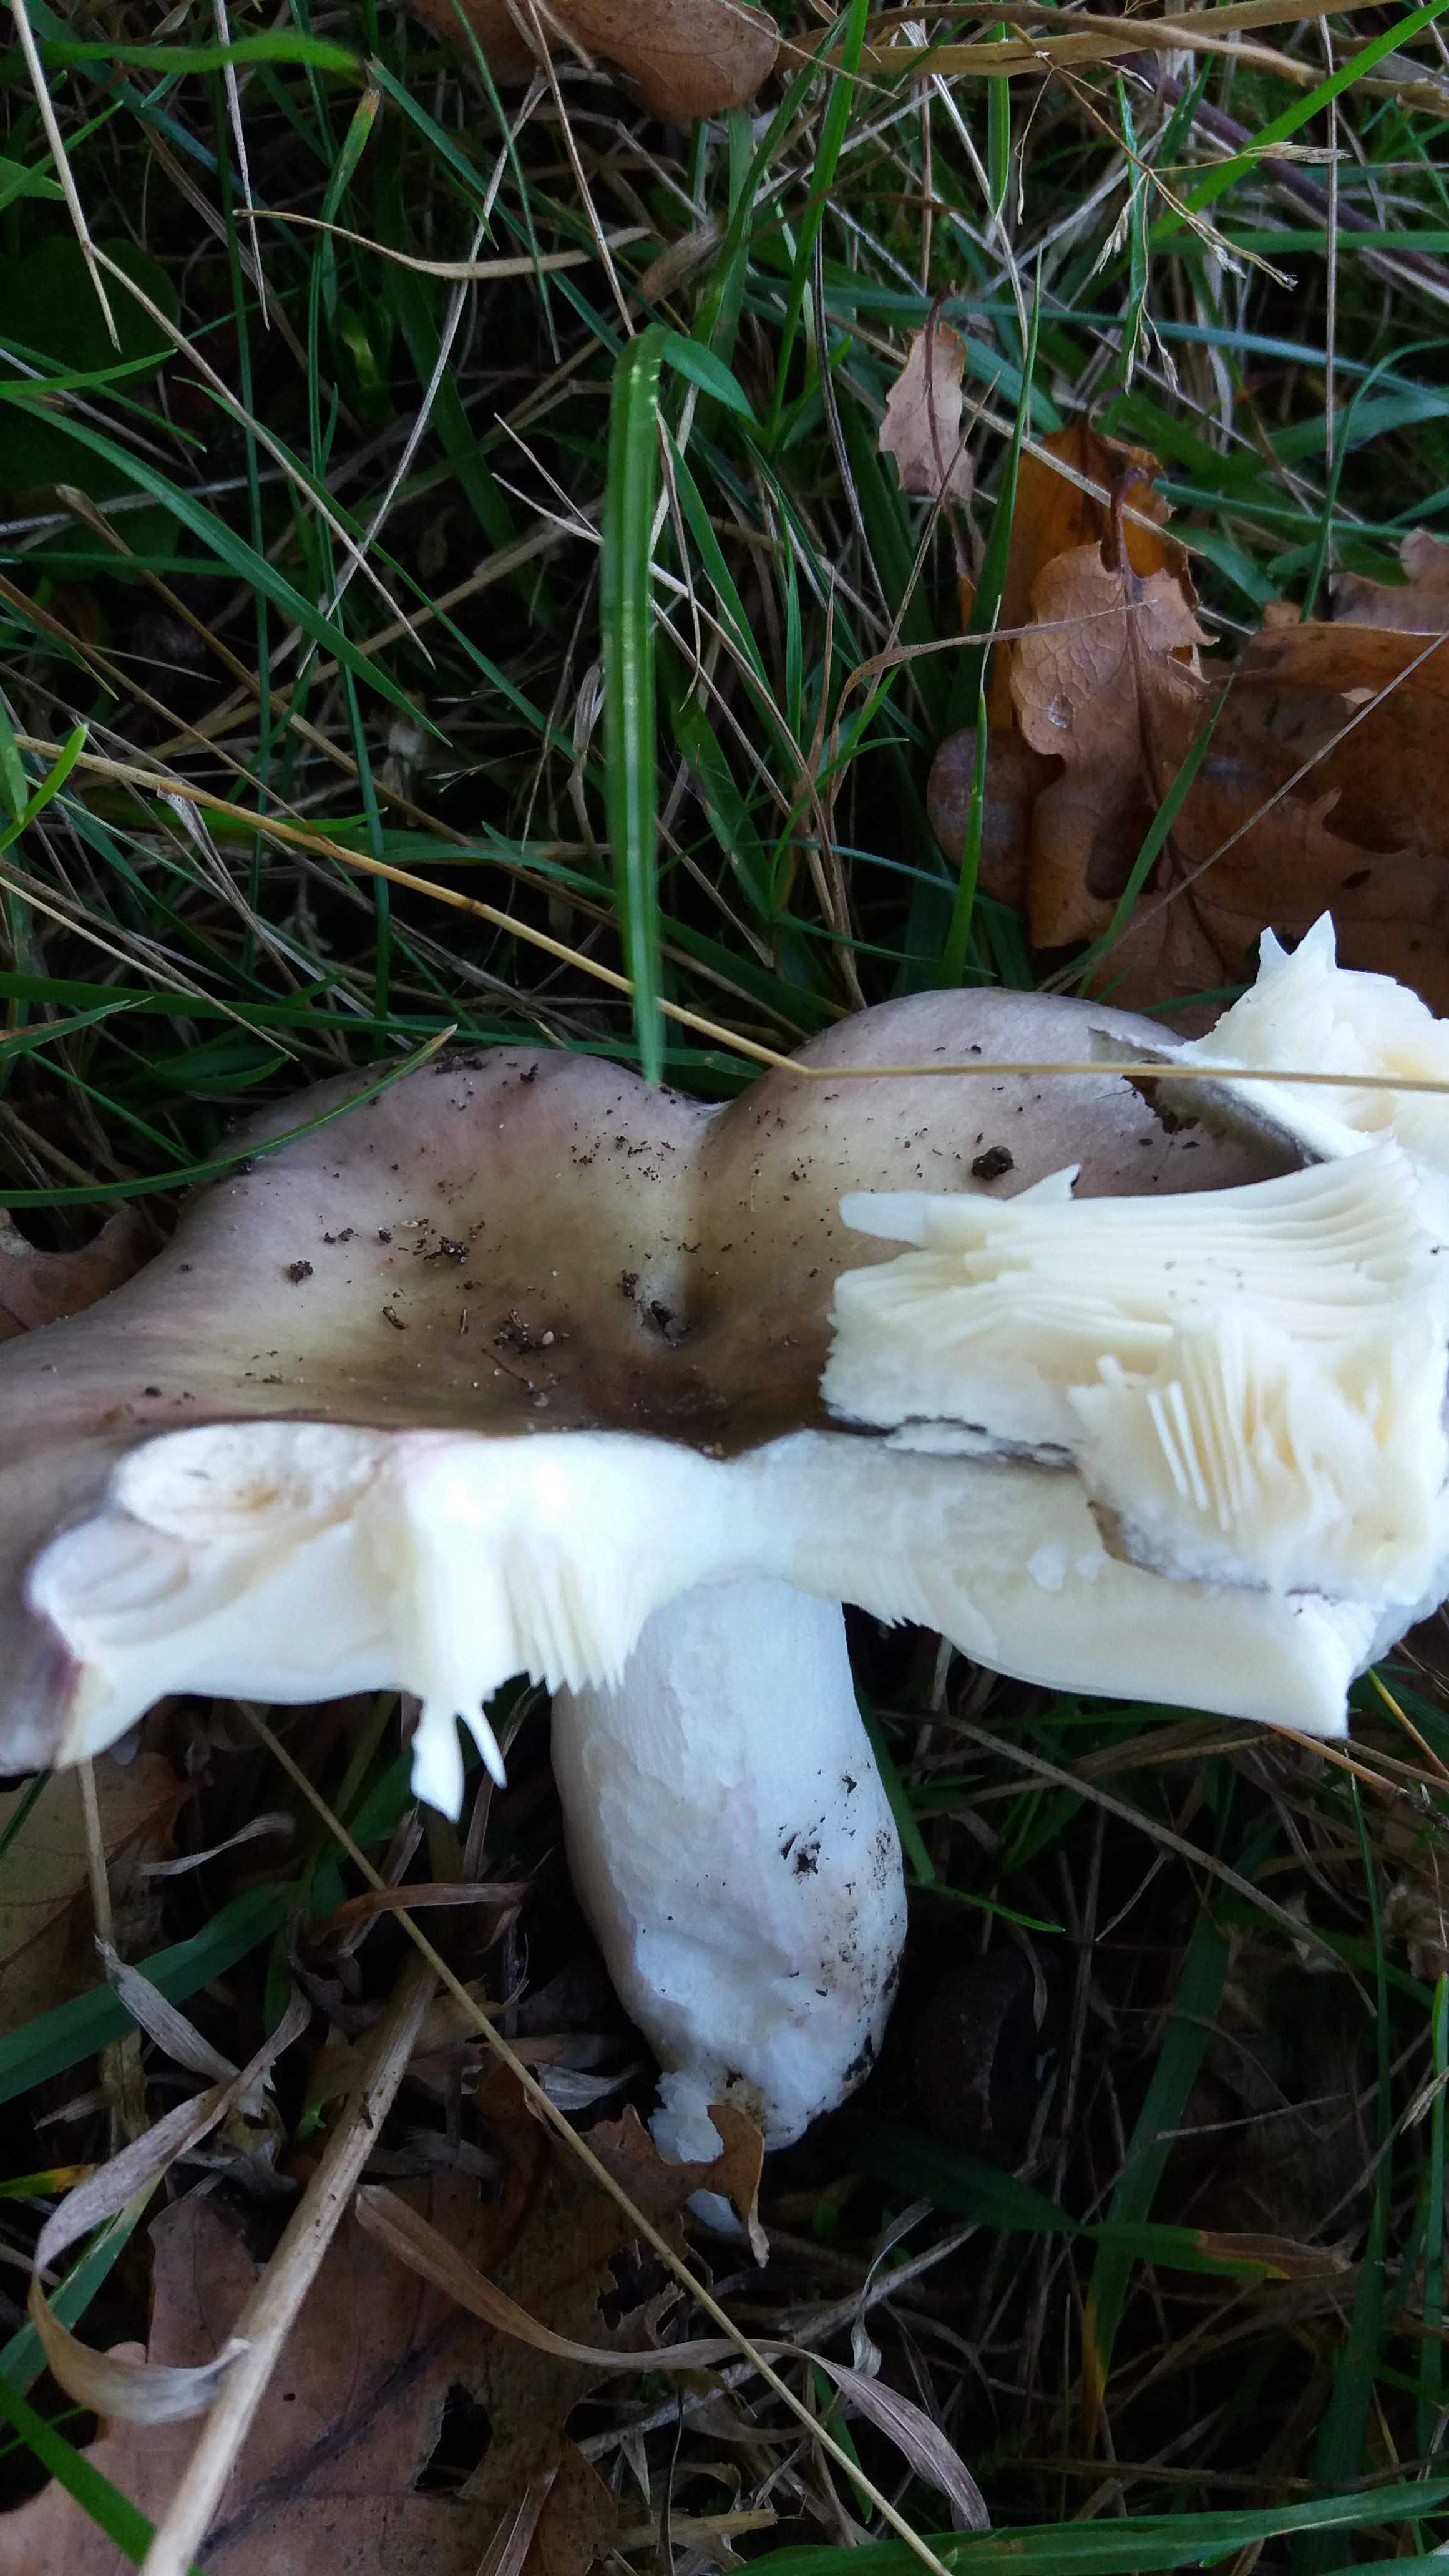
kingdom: Fungi
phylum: Basidiomycota
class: Agaricomycetes
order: Russulales
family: Russulaceae
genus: Russula
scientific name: Russula
